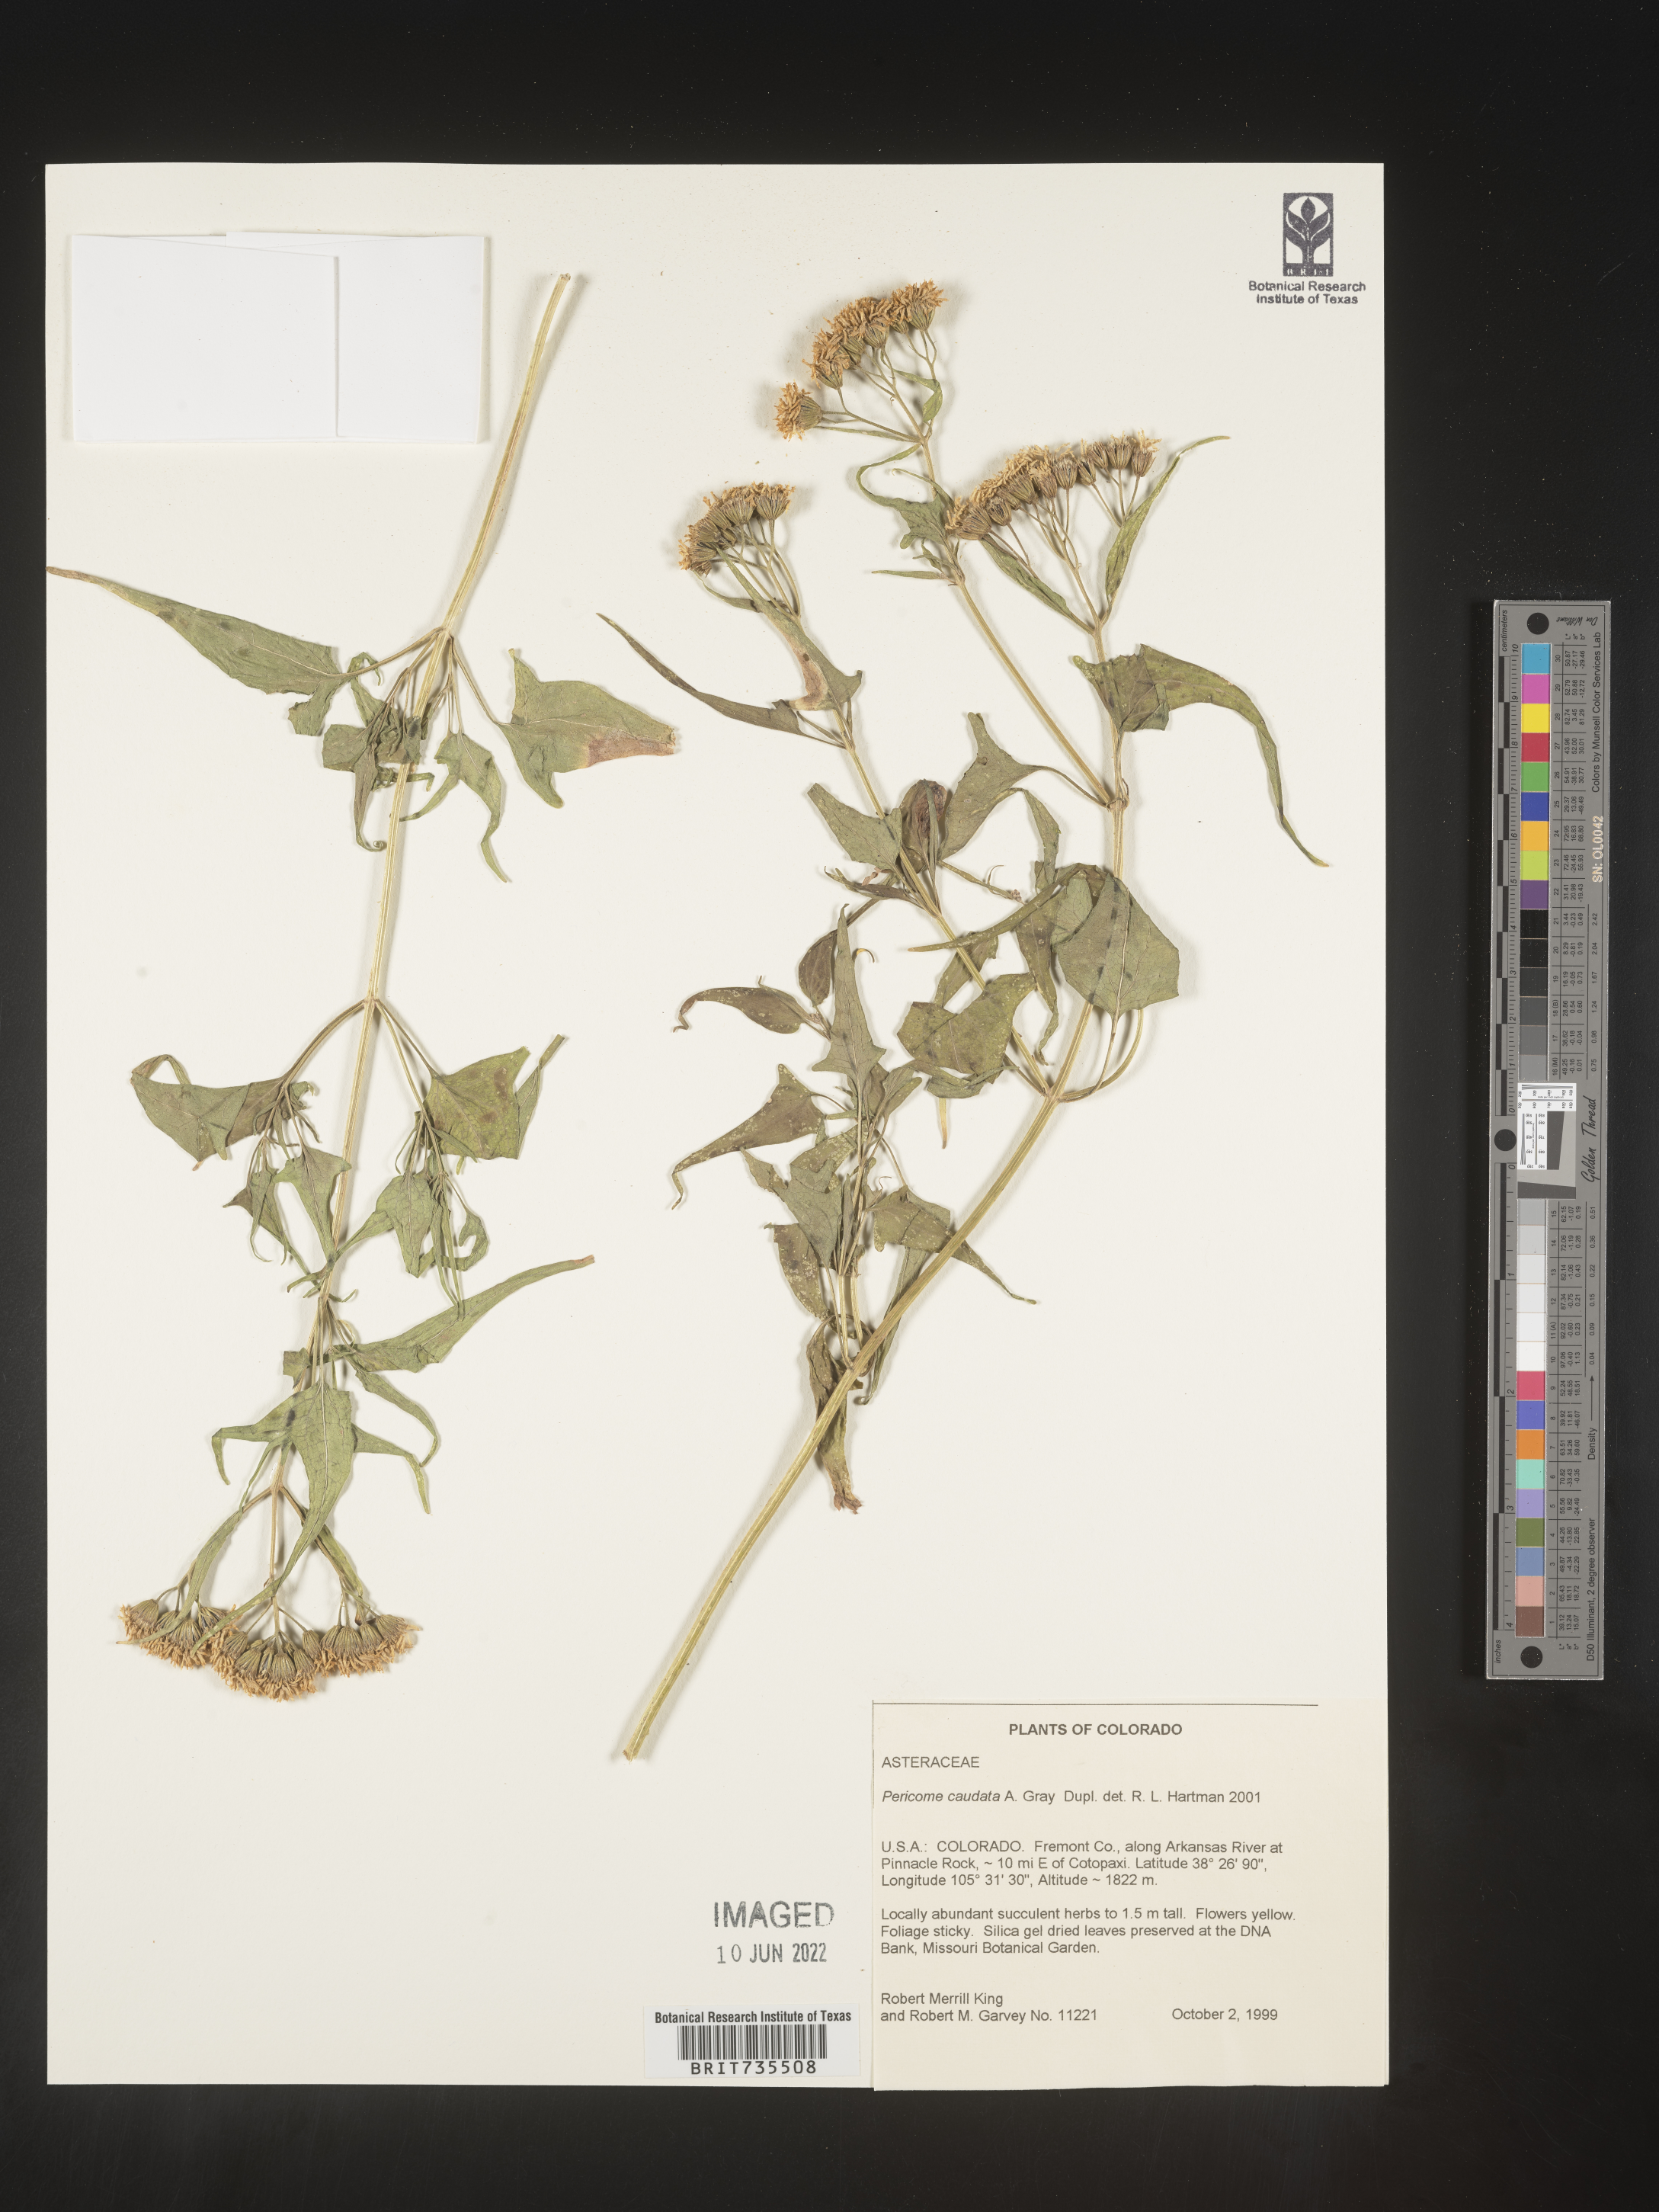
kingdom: Plantae
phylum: Tracheophyta
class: Magnoliopsida
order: Asterales
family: Asteraceae
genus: Pericome
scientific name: Pericome
